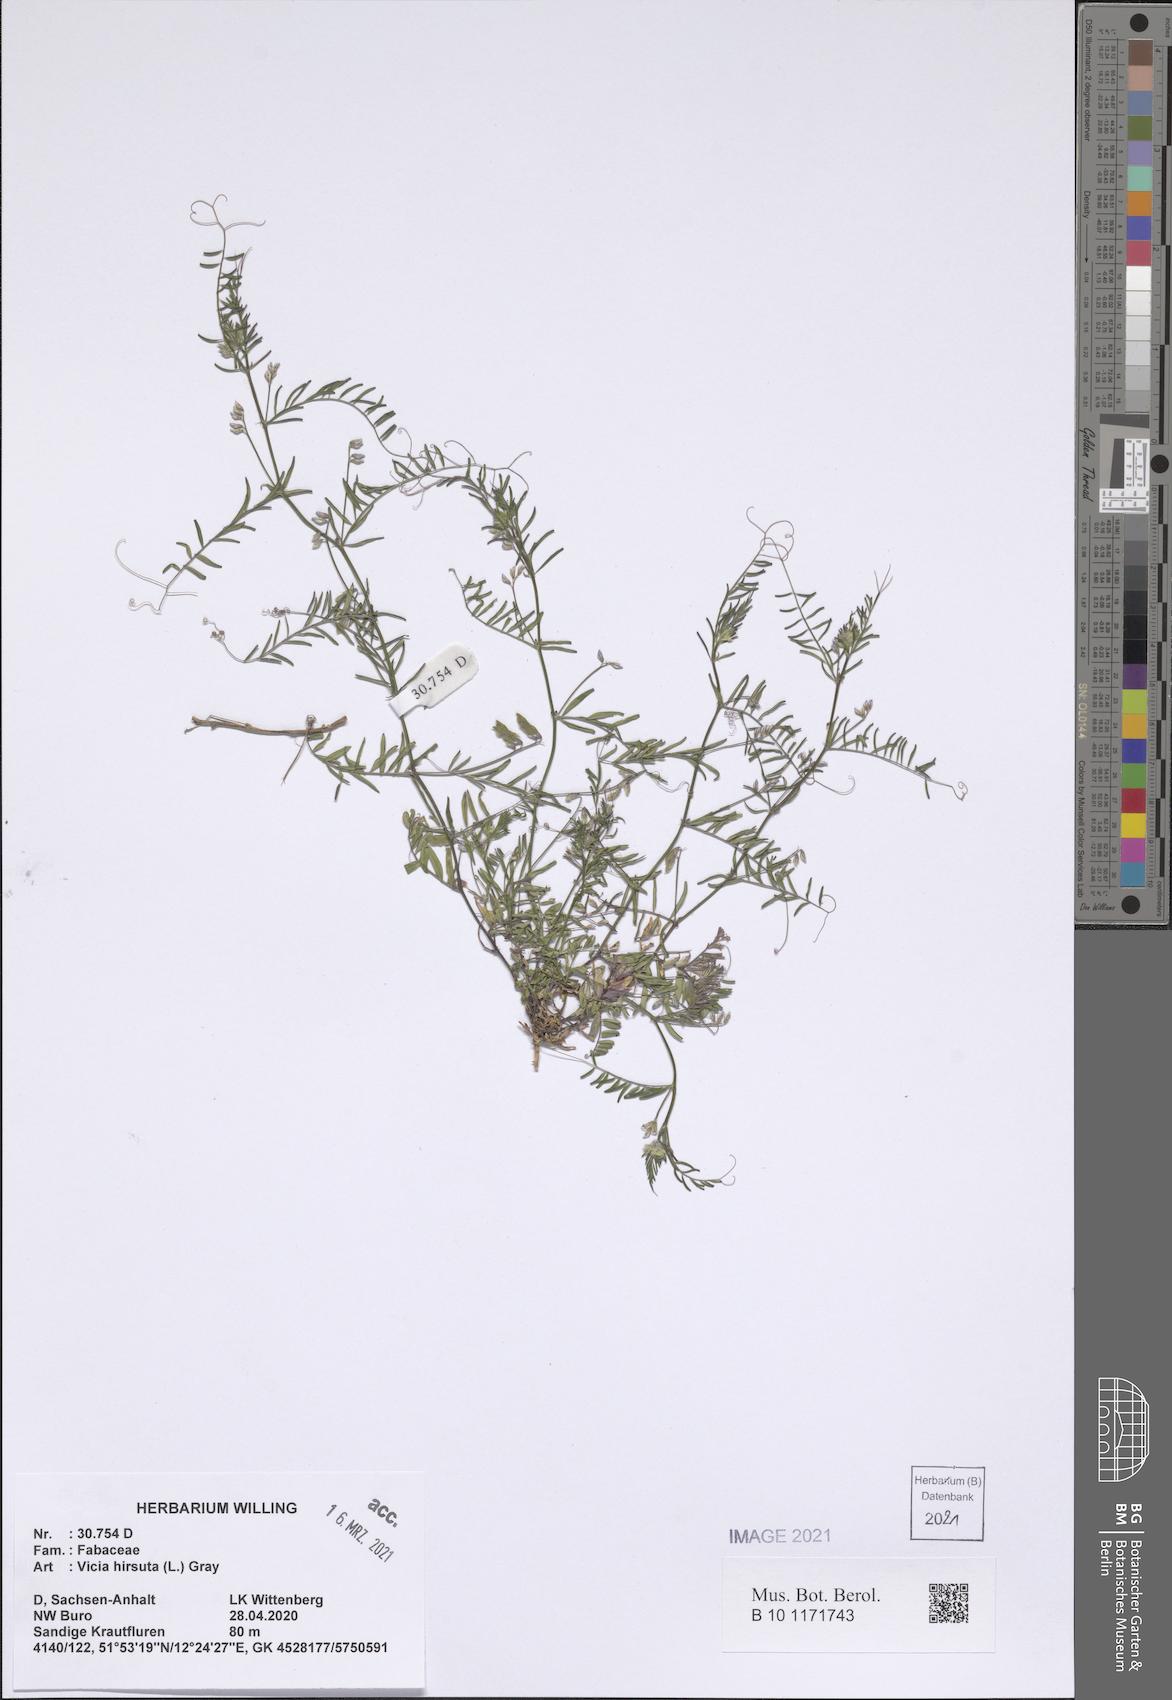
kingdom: Plantae
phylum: Tracheophyta
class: Magnoliopsida
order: Fabales
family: Fabaceae
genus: Vicia
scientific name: Vicia hirsuta
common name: Tiny vetch
